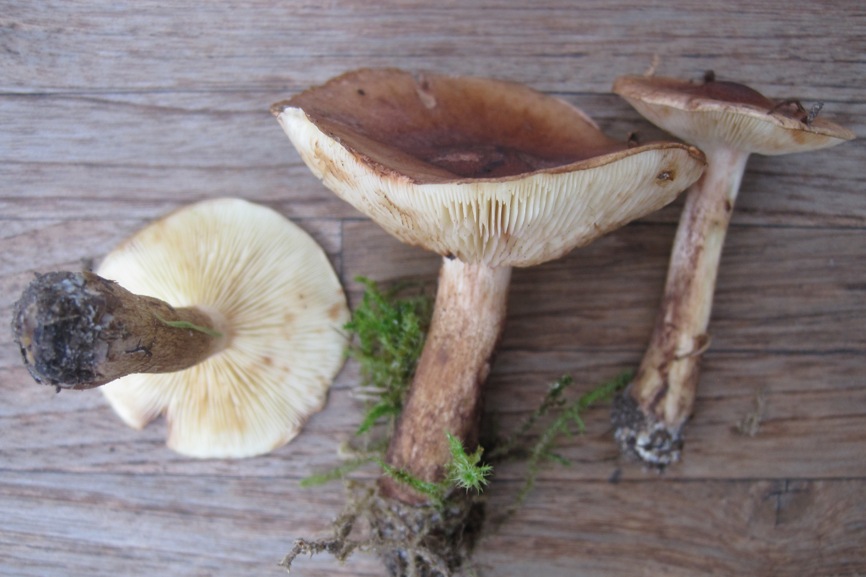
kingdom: Fungi
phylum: Basidiomycota
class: Agaricomycetes
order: Agaricales
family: Tricholomataceae
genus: Tricholoma
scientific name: Tricholoma fulvum
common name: birke-ridderhat
